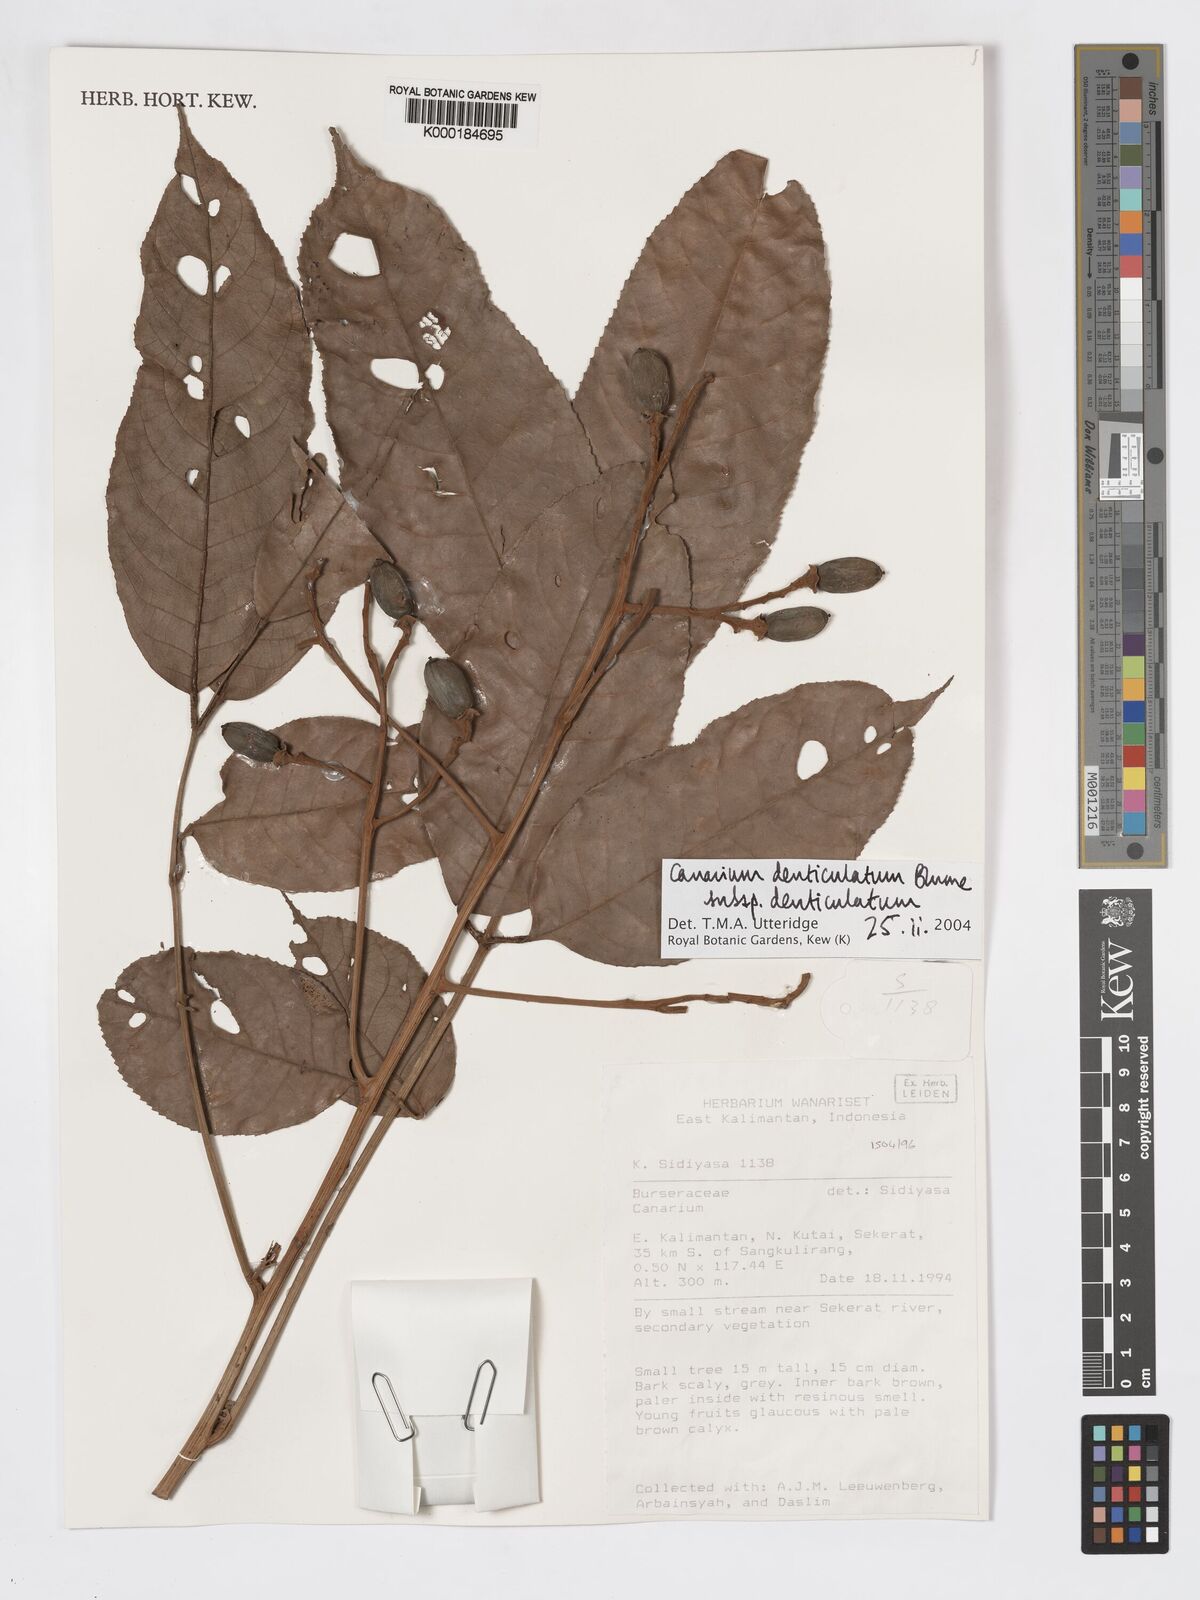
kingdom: Plantae
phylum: Tracheophyta
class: Magnoliopsida
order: Sapindales
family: Burseraceae
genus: Canarium
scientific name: Canarium denticulatum
